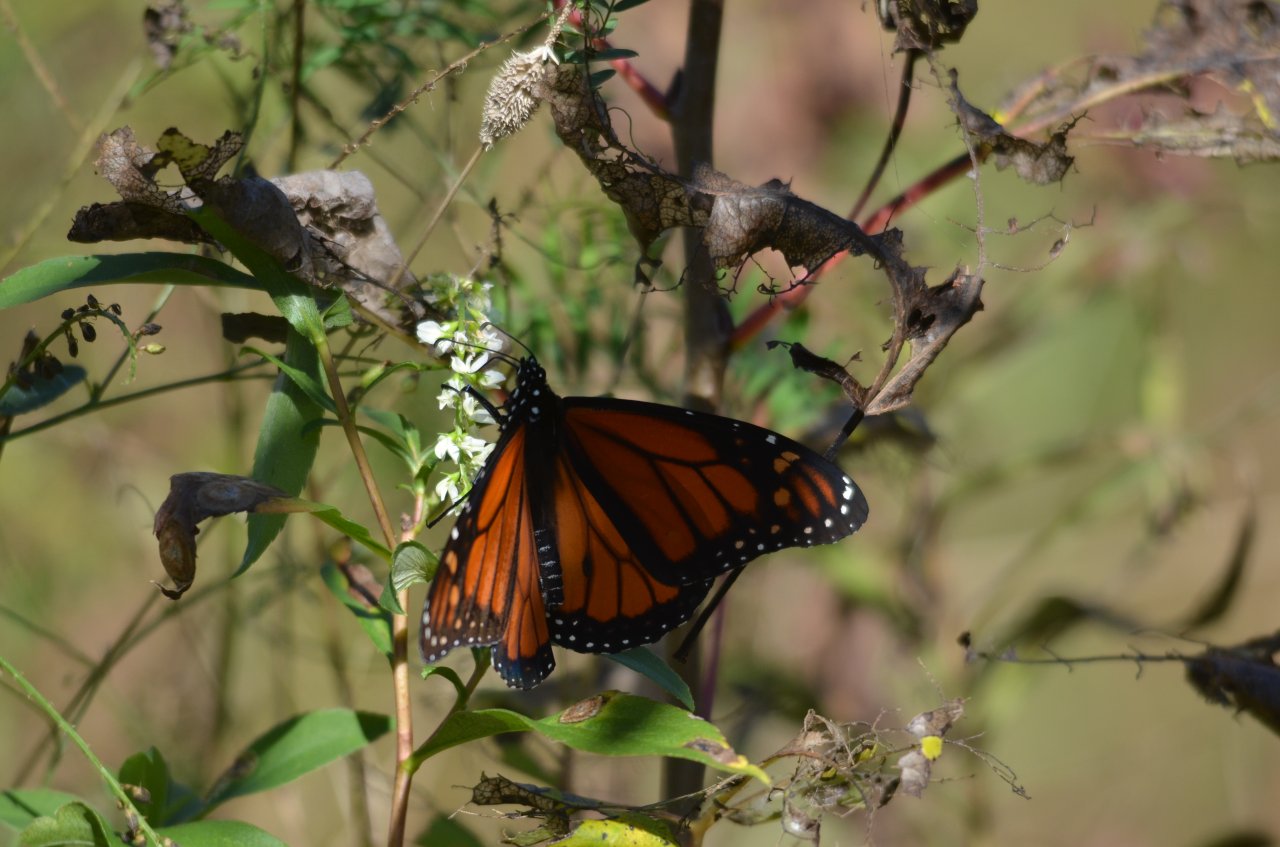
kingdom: Animalia
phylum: Arthropoda
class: Insecta
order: Lepidoptera
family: Nymphalidae
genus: Danaus
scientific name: Danaus plexippus
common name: Monarch
